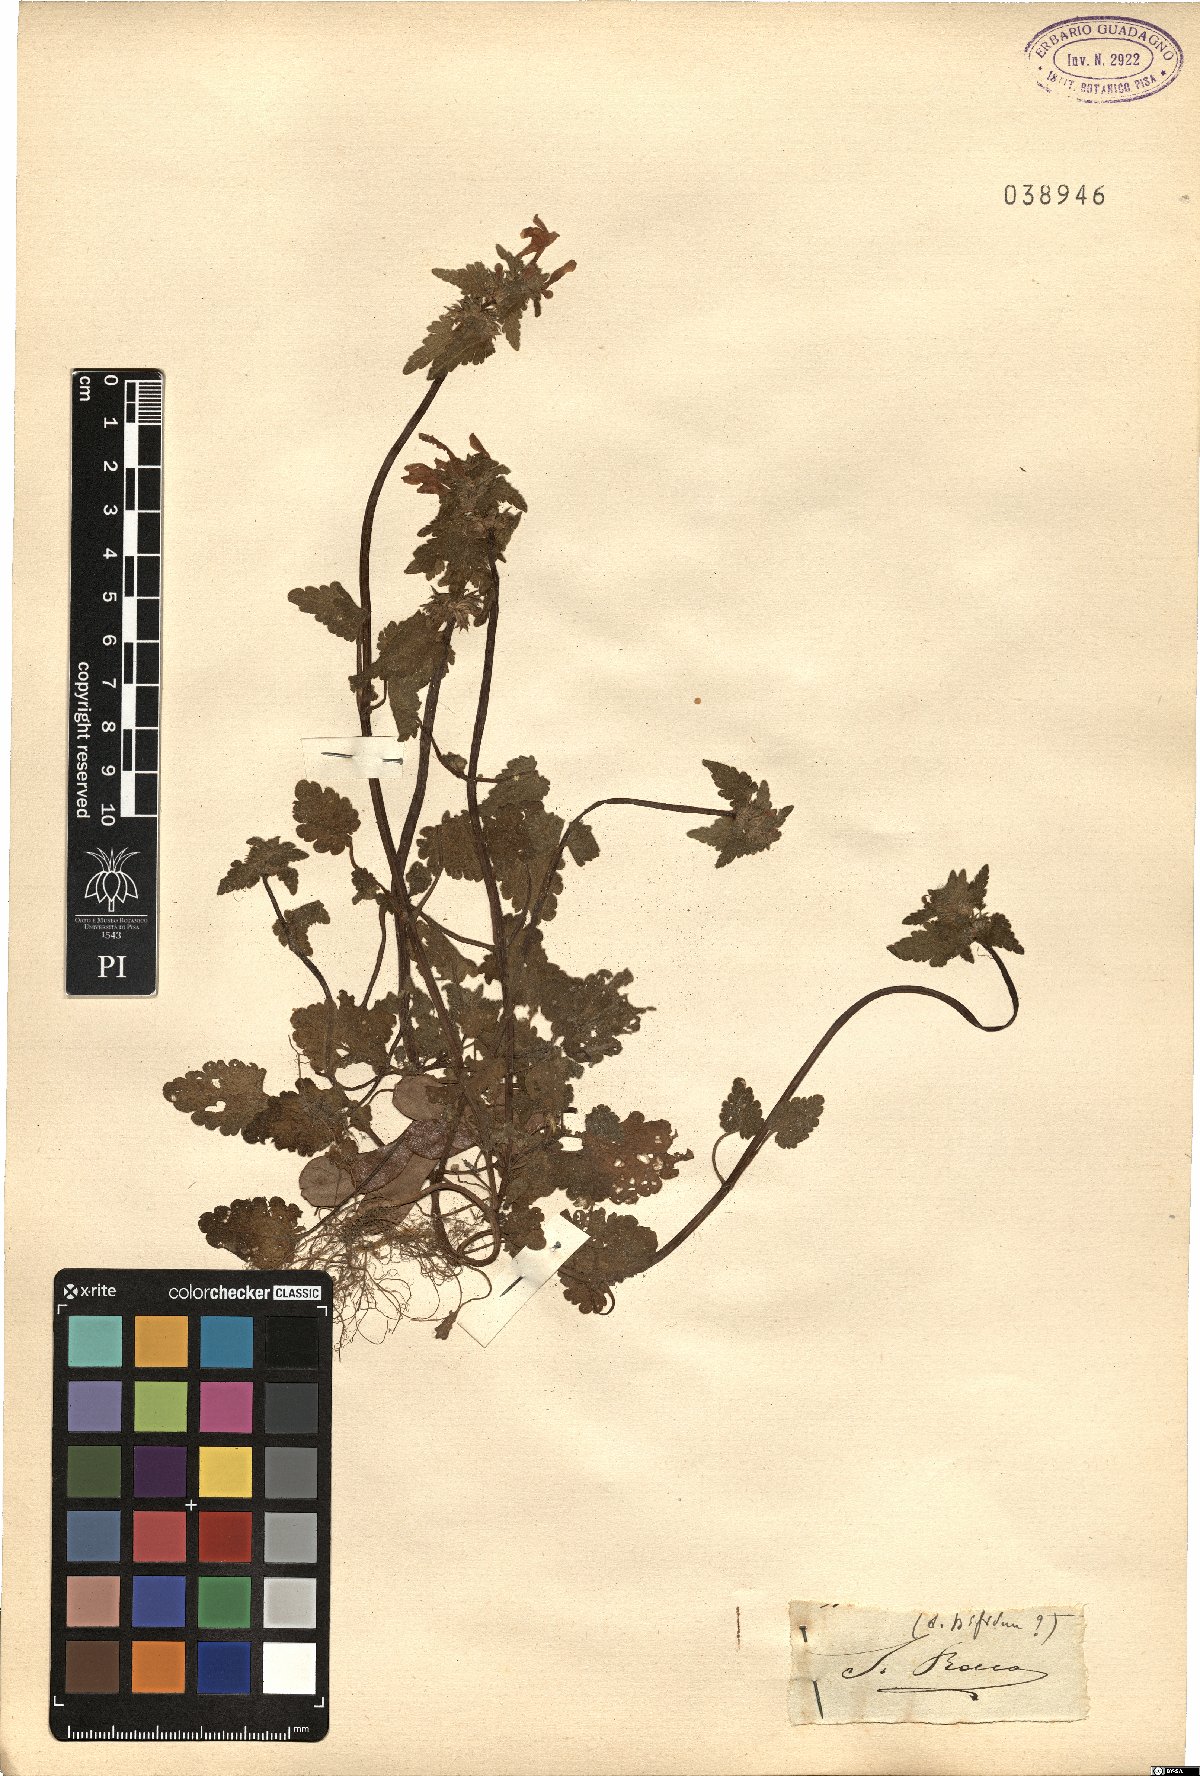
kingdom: Plantae
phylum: Tracheophyta
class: Magnoliopsida
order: Lamiales
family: Lamiaceae
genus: Lamium
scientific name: Lamium bifidum
